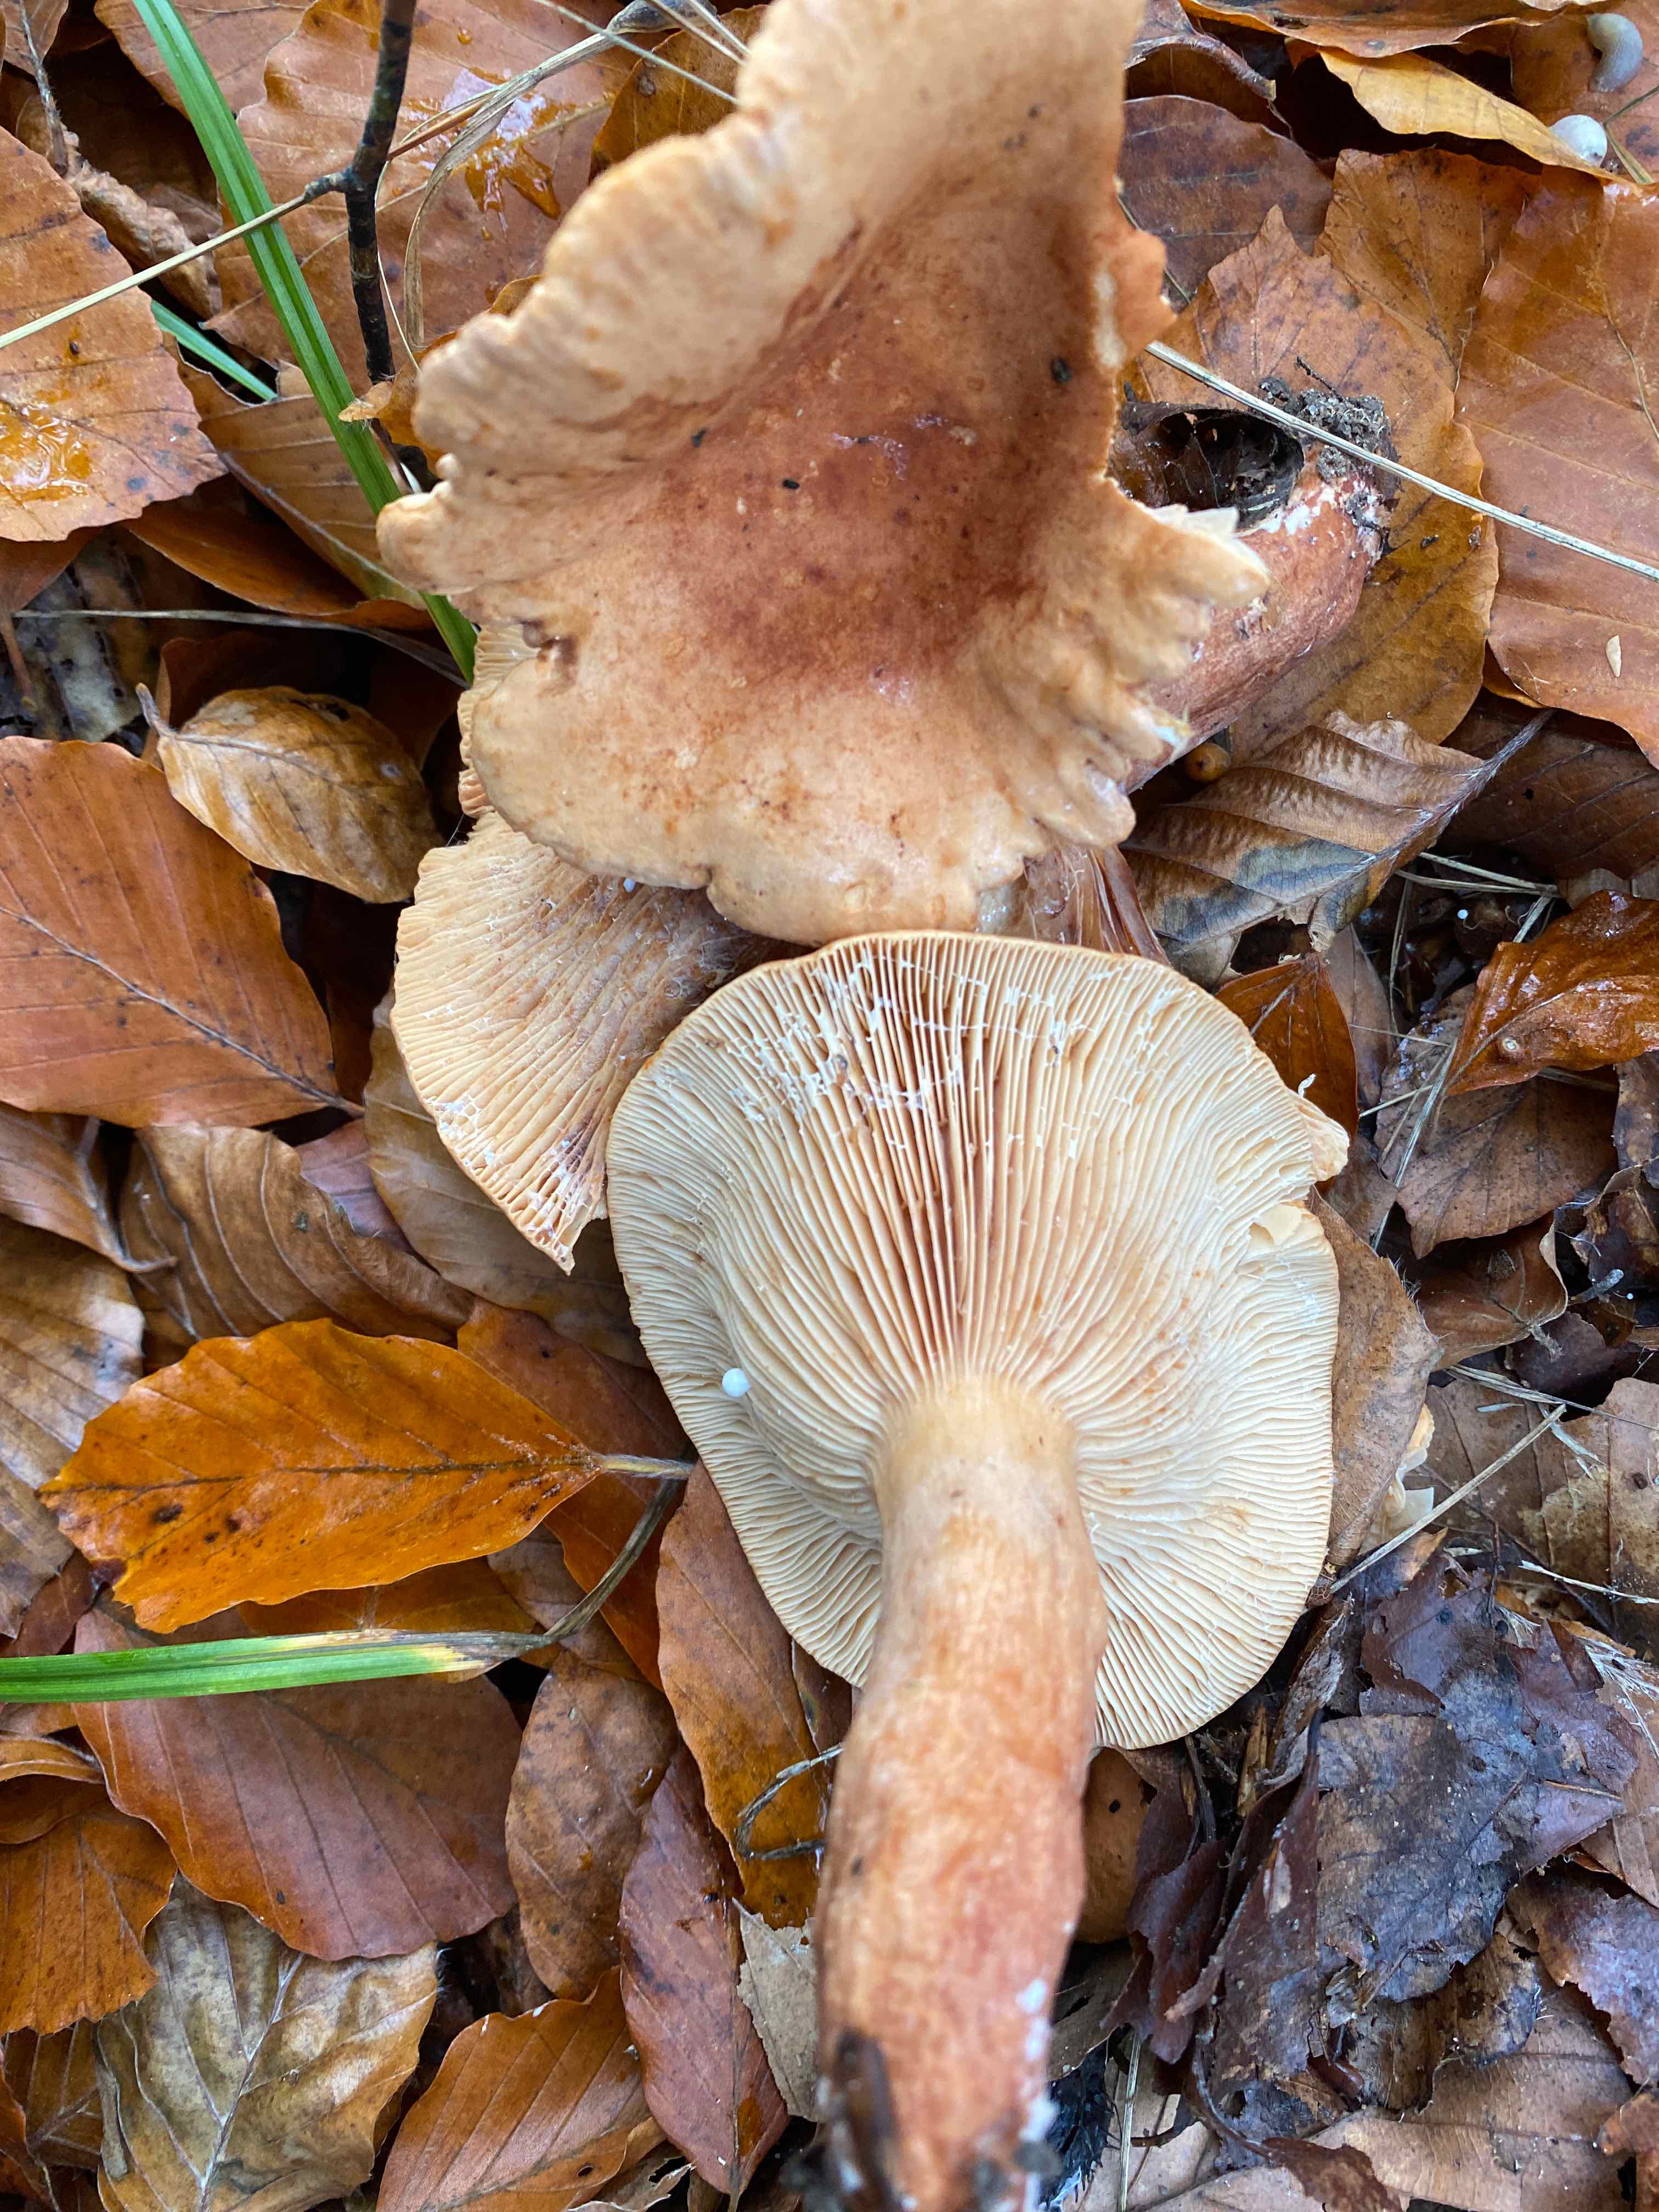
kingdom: Fungi
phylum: Basidiomycota
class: Agaricomycetes
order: Russulales
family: Russulaceae
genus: Lactarius
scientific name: Lactarius subdulcis
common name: sødlig mælkehat
